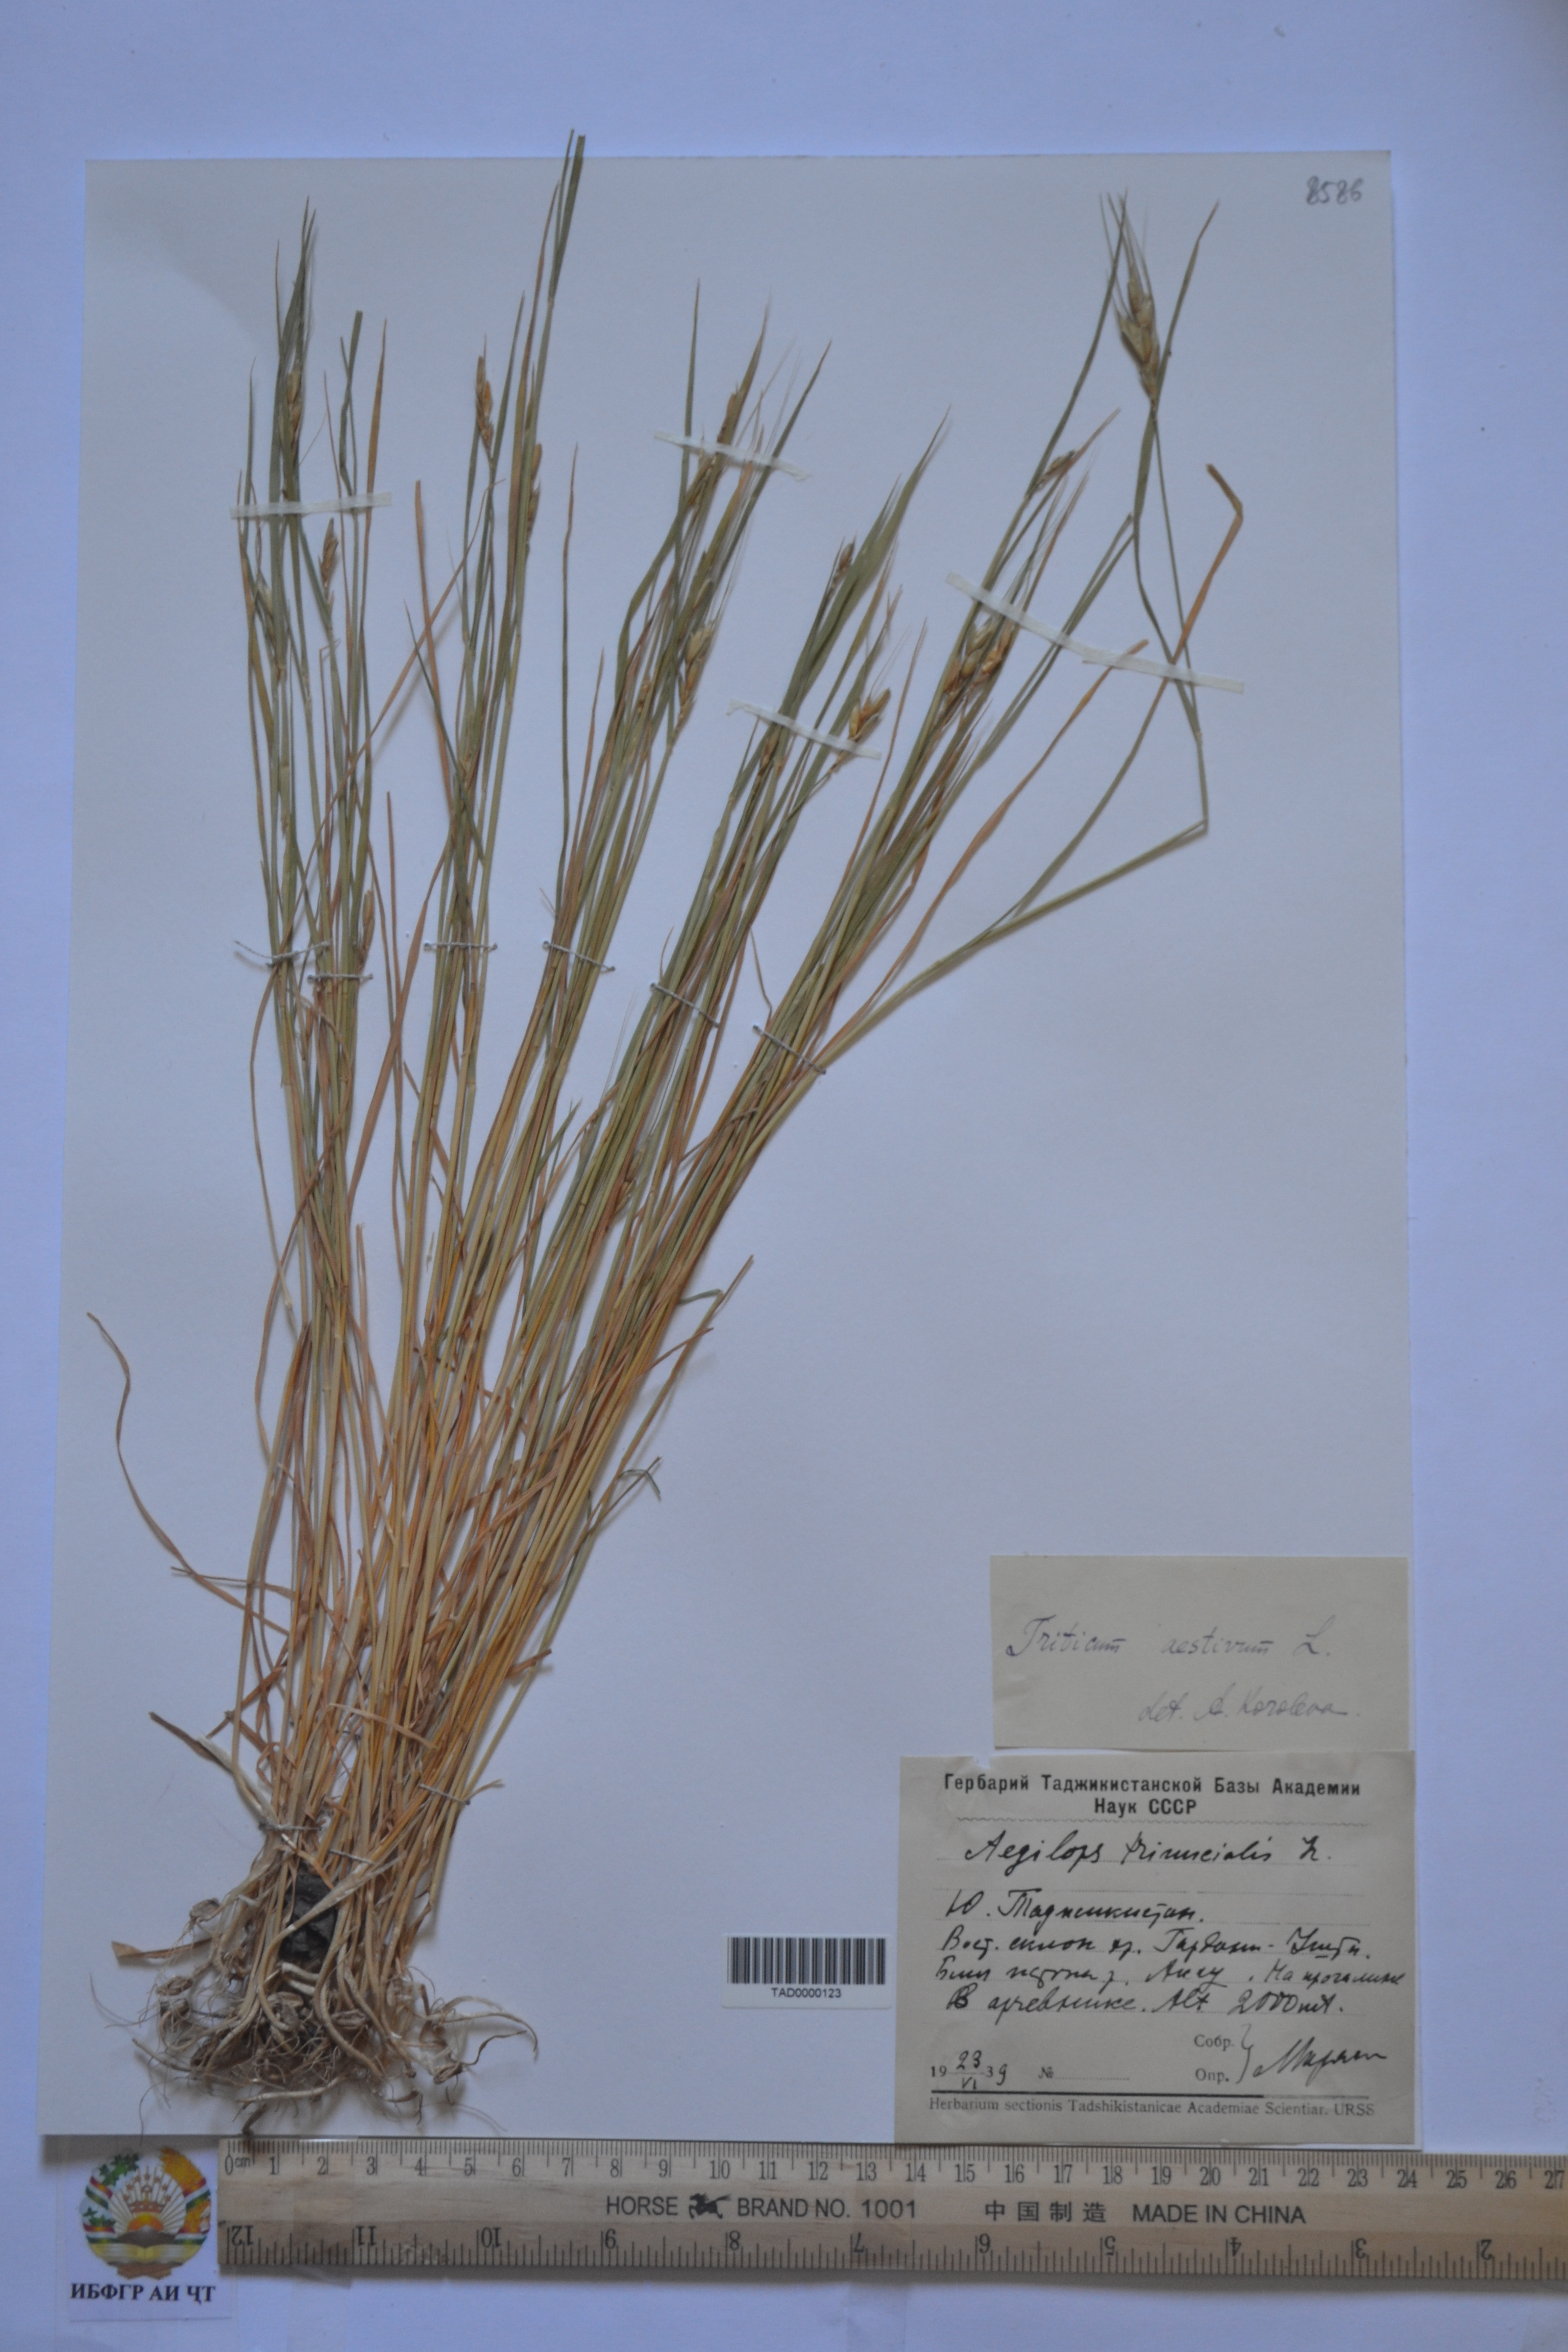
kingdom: Plantae
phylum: Tracheophyta
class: Liliopsida
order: Poales
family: Poaceae
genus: Triticum
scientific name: Triticum aestivum
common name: Common wheat
